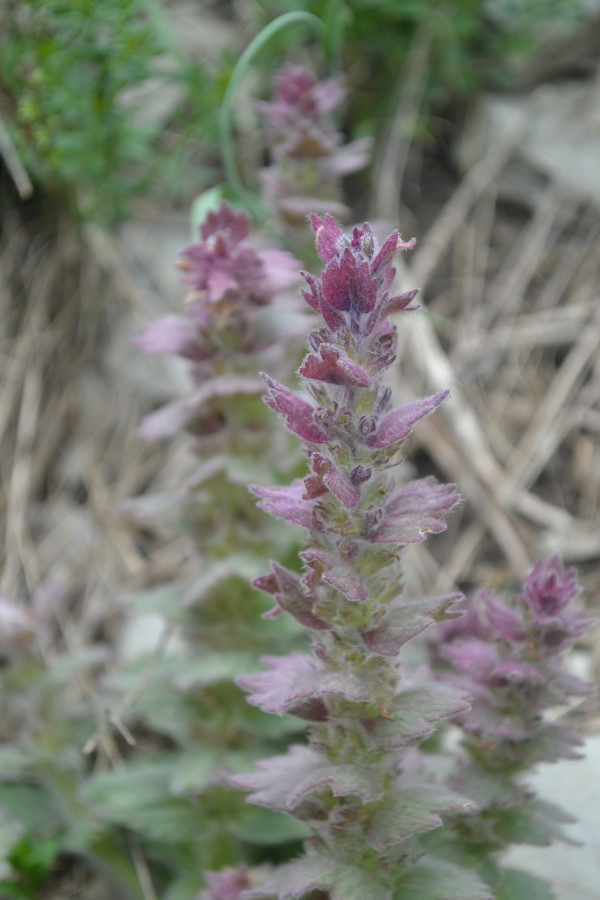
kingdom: Plantae
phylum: Tracheophyta
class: Magnoliopsida
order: Lamiales
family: Lamiaceae
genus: Ajuga
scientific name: Ajuga orientalis
